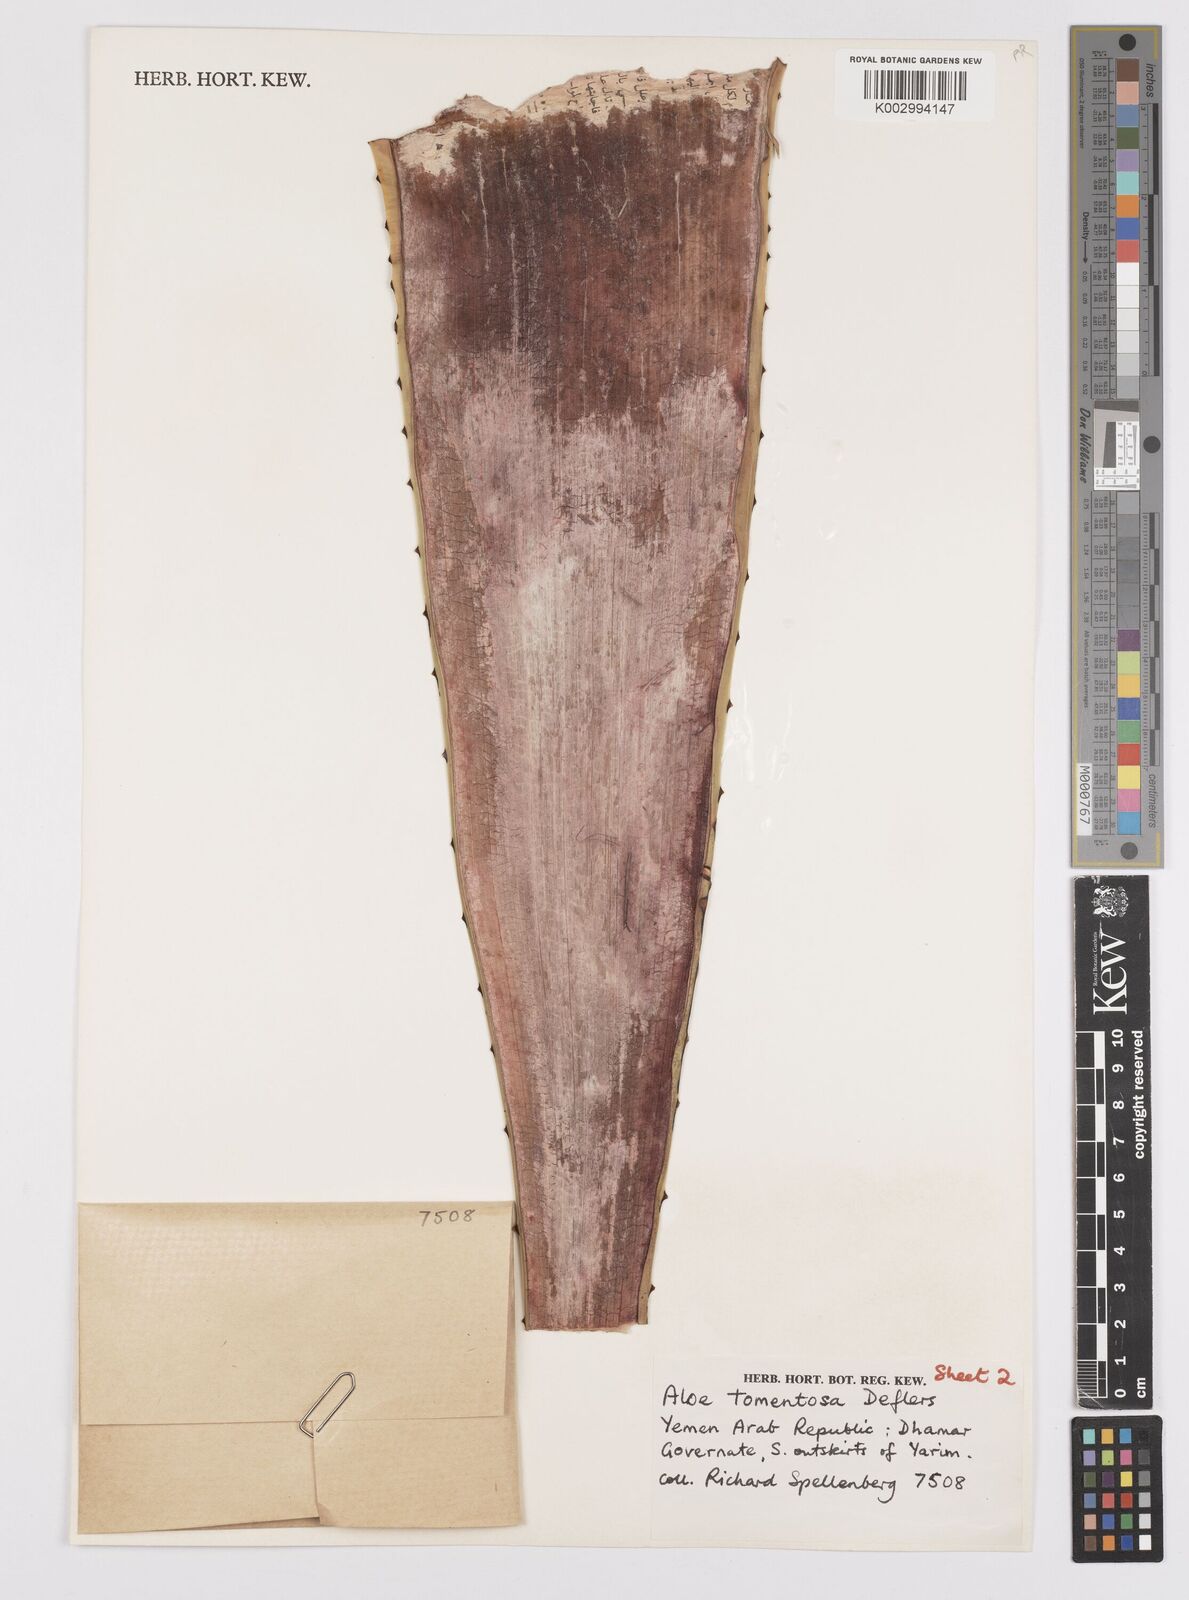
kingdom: Plantae
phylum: Tracheophyta
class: Liliopsida
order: Asparagales
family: Asphodelaceae
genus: Aloe
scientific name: Aloe tomentosa
